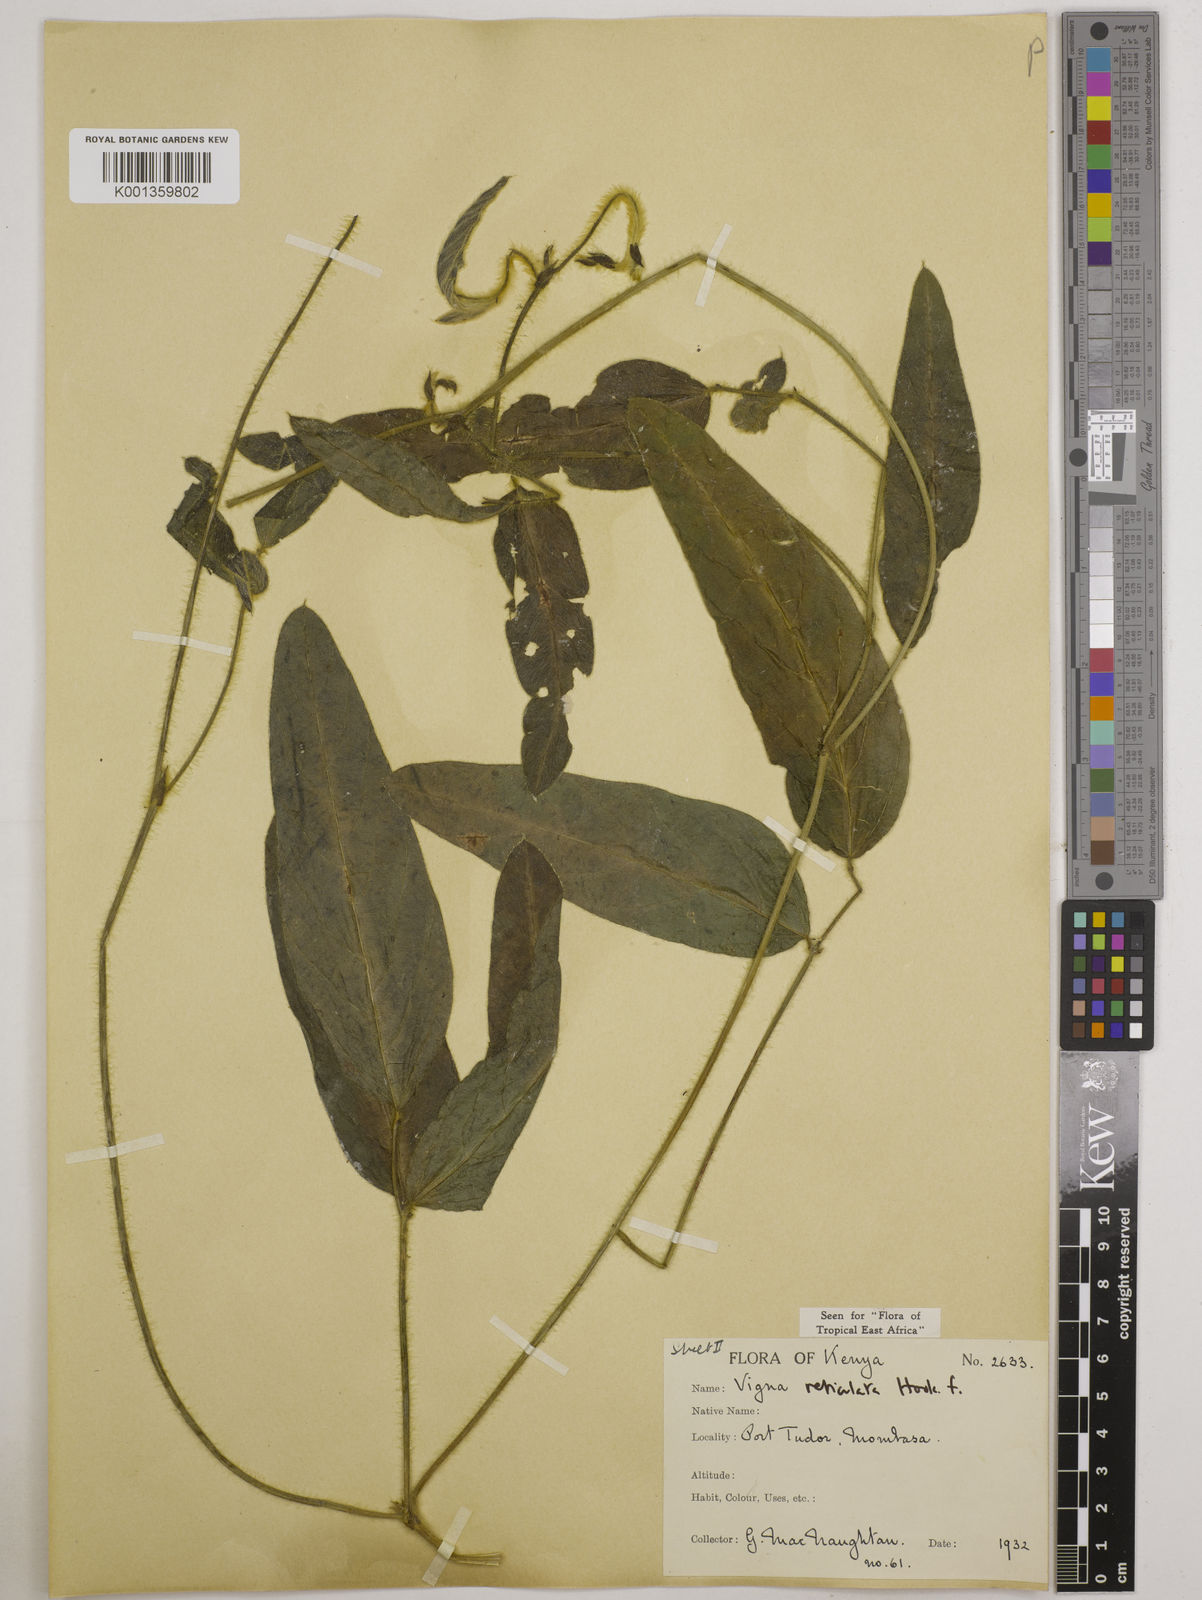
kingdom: Plantae
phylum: Tracheophyta
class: Magnoliopsida
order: Fabales
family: Fabaceae
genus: Vigna
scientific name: Vigna reticulata
